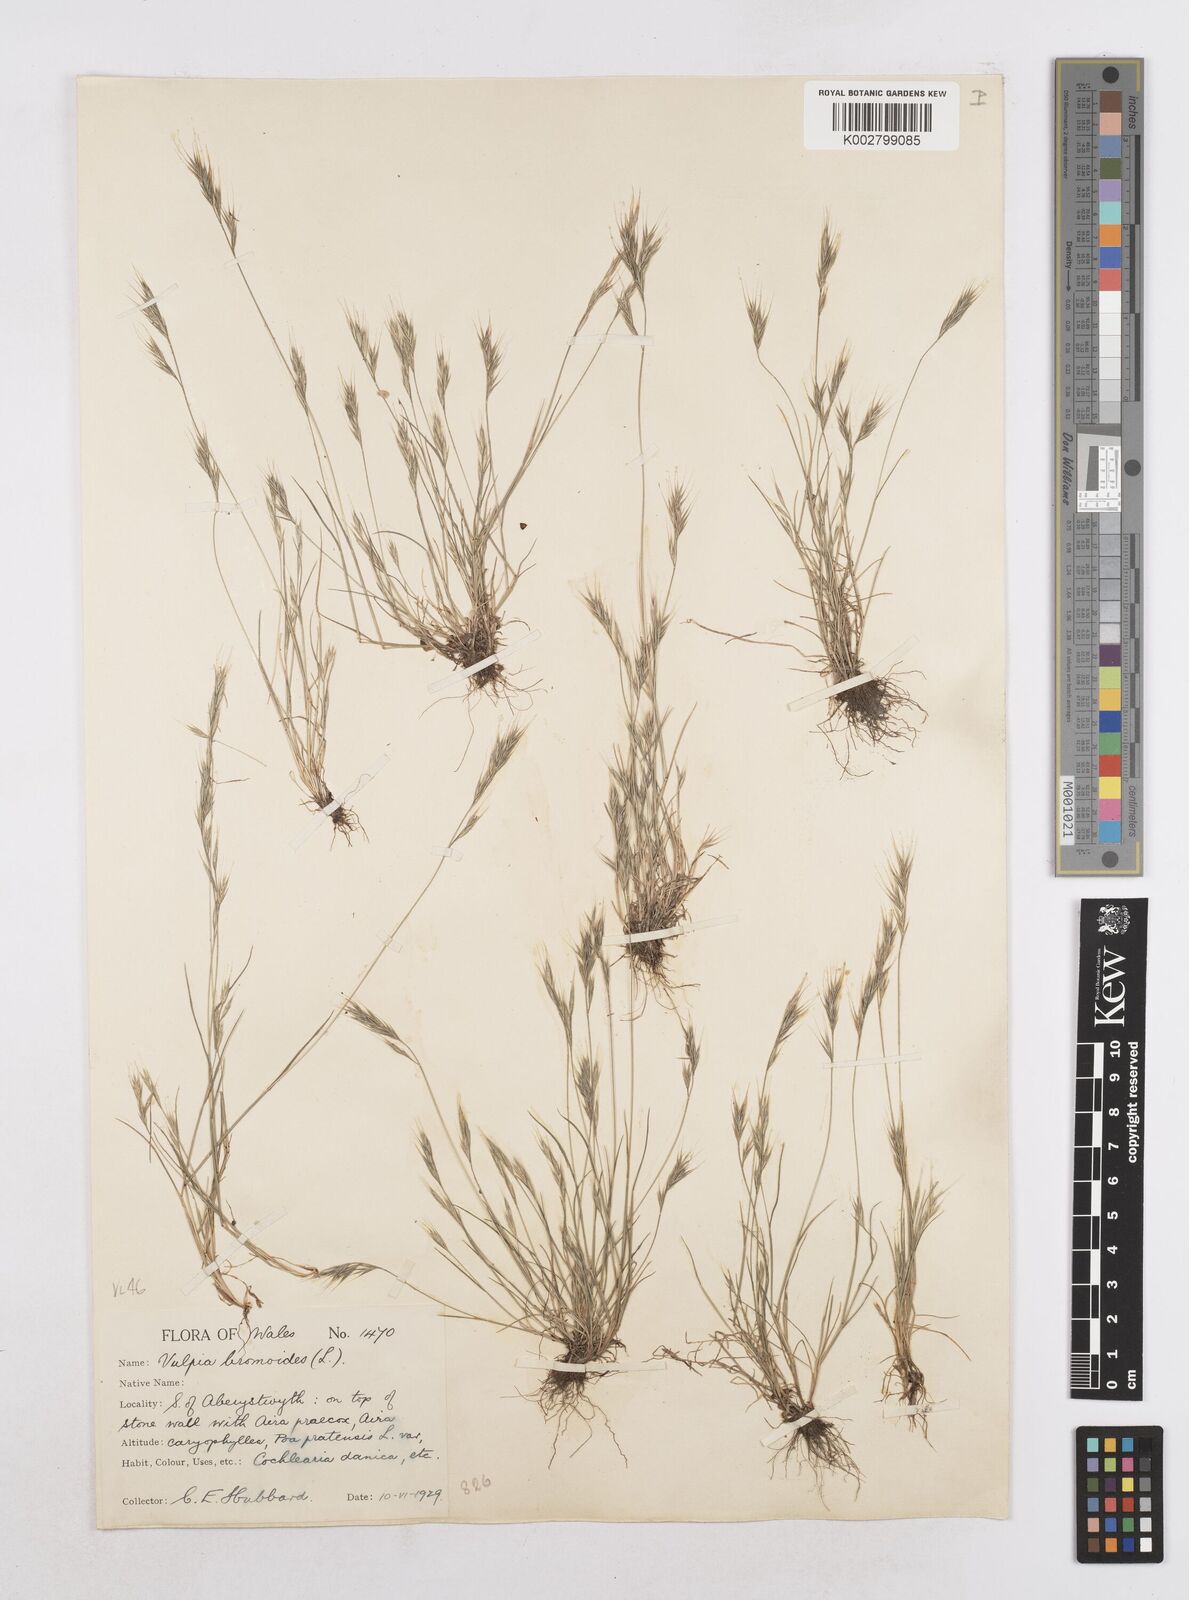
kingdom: Plantae
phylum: Tracheophyta
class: Liliopsida
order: Poales
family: Poaceae
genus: Festuca
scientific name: Festuca bromoides
